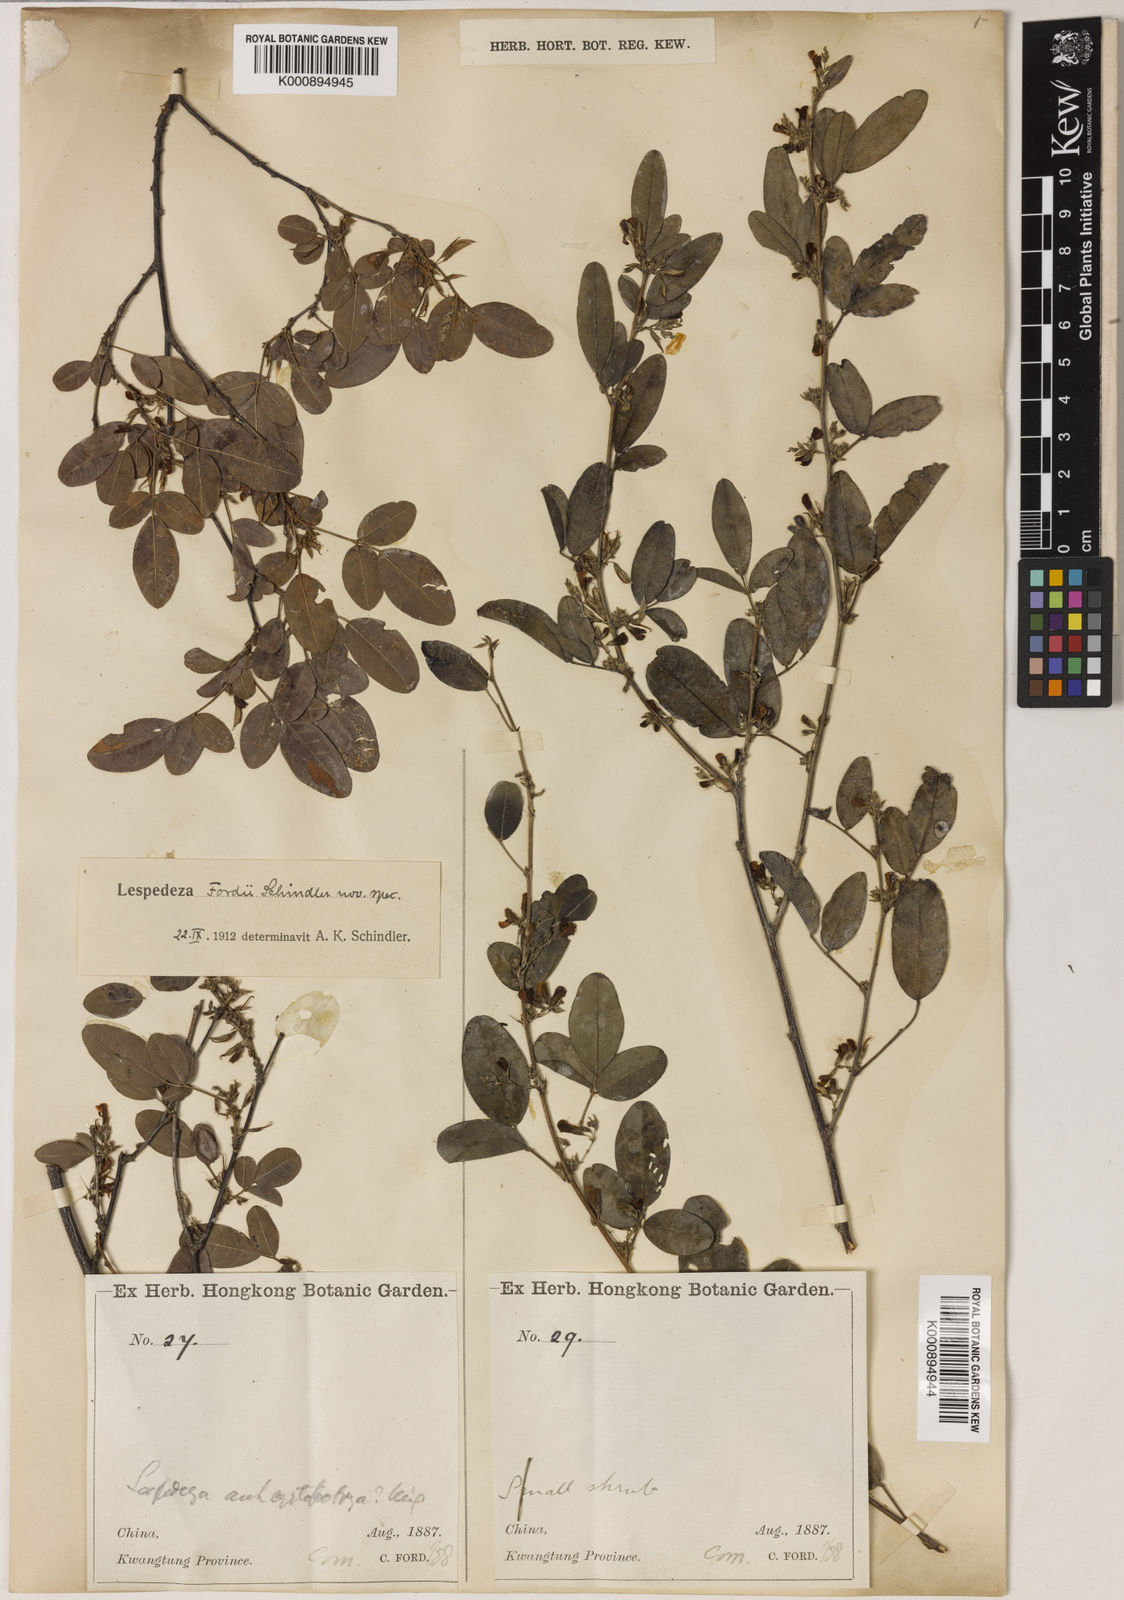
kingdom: Plantae
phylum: Tracheophyta
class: Magnoliopsida
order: Fabales
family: Fabaceae
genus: Lespedeza
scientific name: Lespedeza fordii
